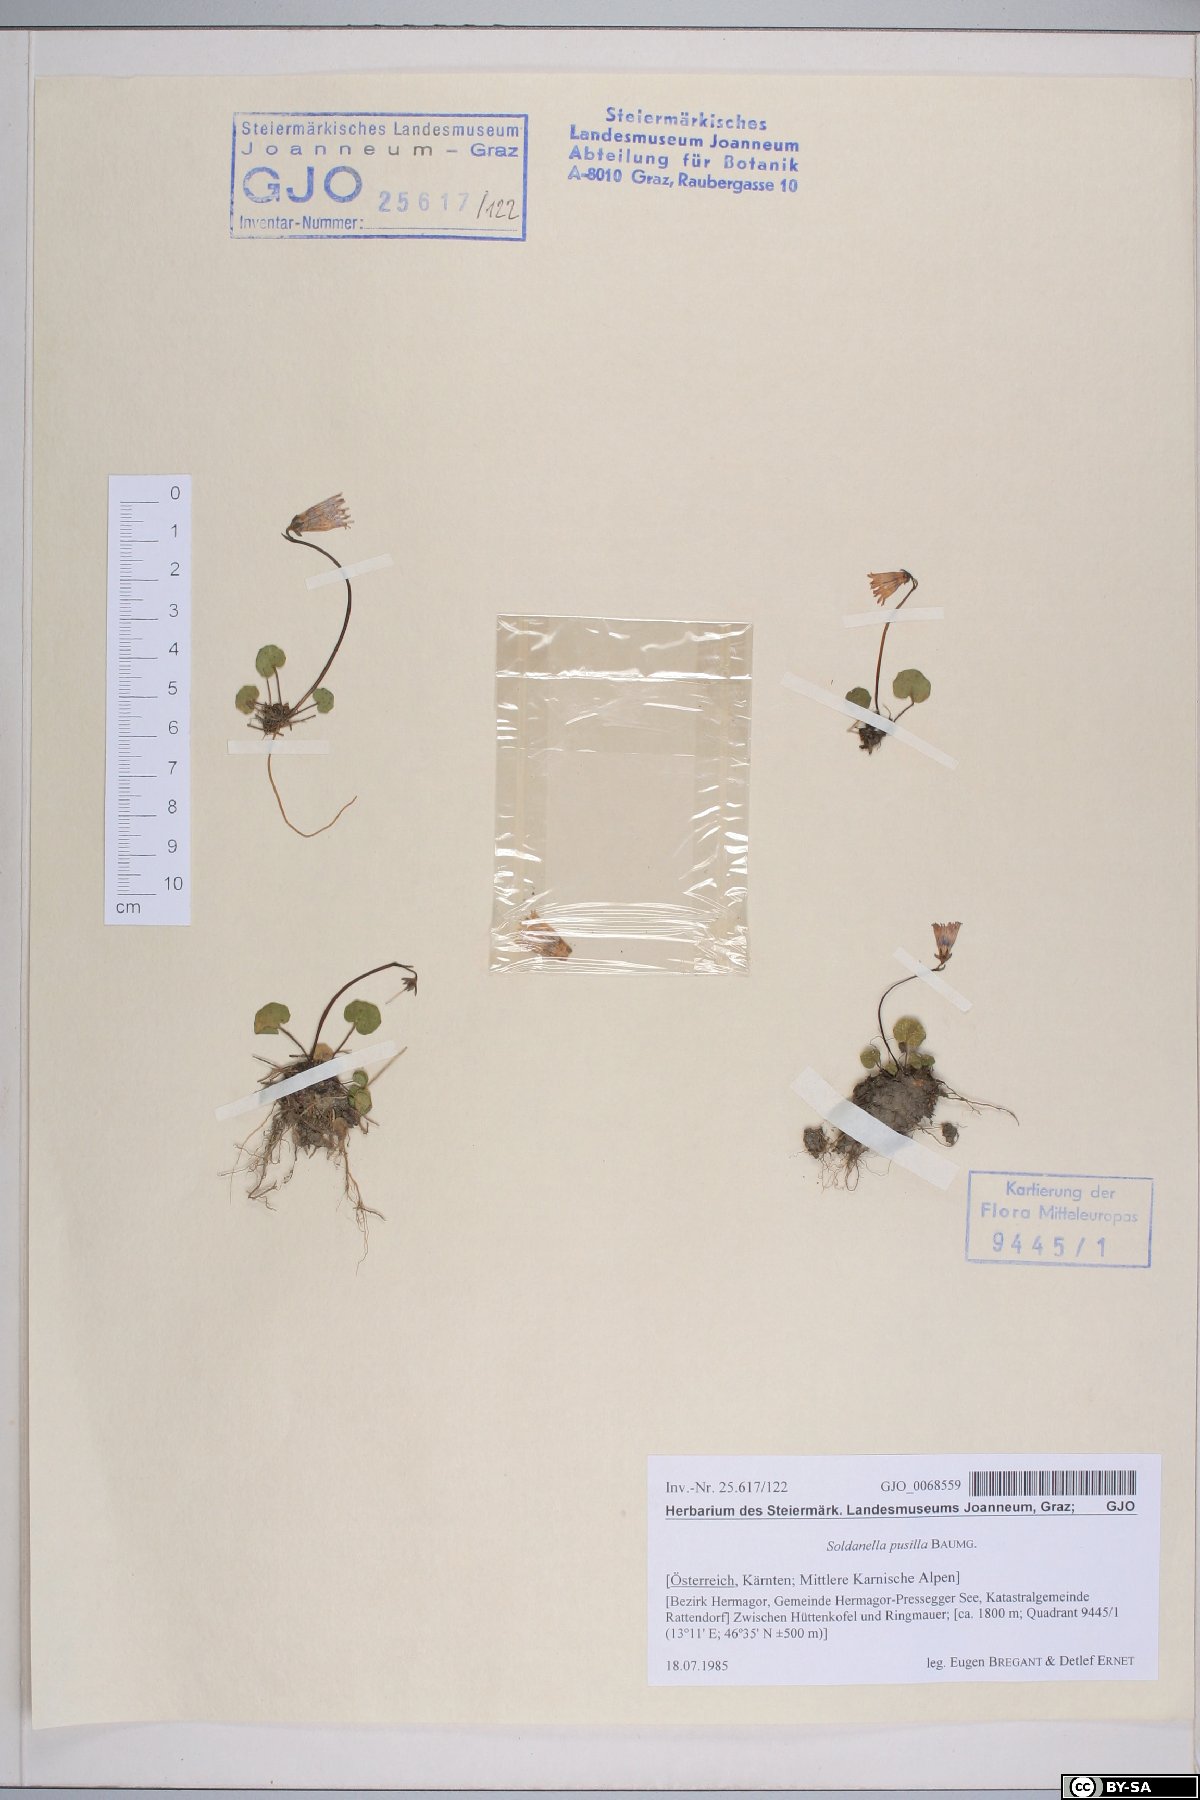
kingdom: Plantae
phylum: Tracheophyta
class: Magnoliopsida
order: Ericales
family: Primulaceae
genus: Soldanella
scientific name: Soldanella pusilla
